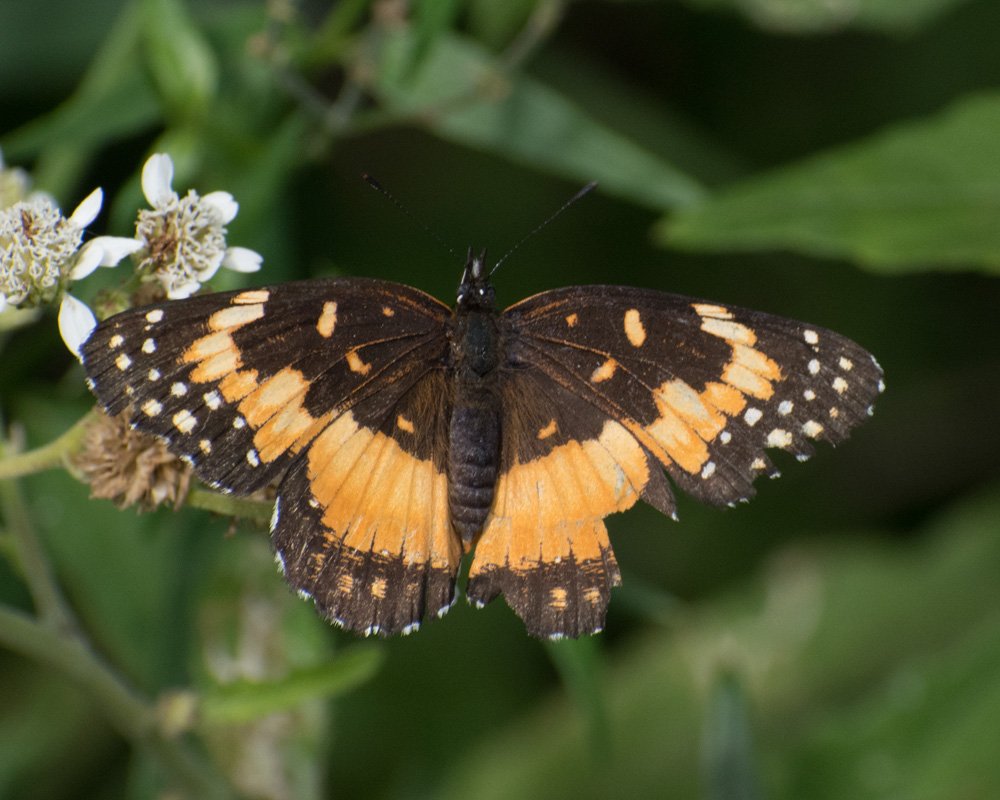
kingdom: Animalia
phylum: Arthropoda
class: Insecta
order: Lepidoptera
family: Nymphalidae
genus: Chlosyne
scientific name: Chlosyne lacinia
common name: Bordered Patch
